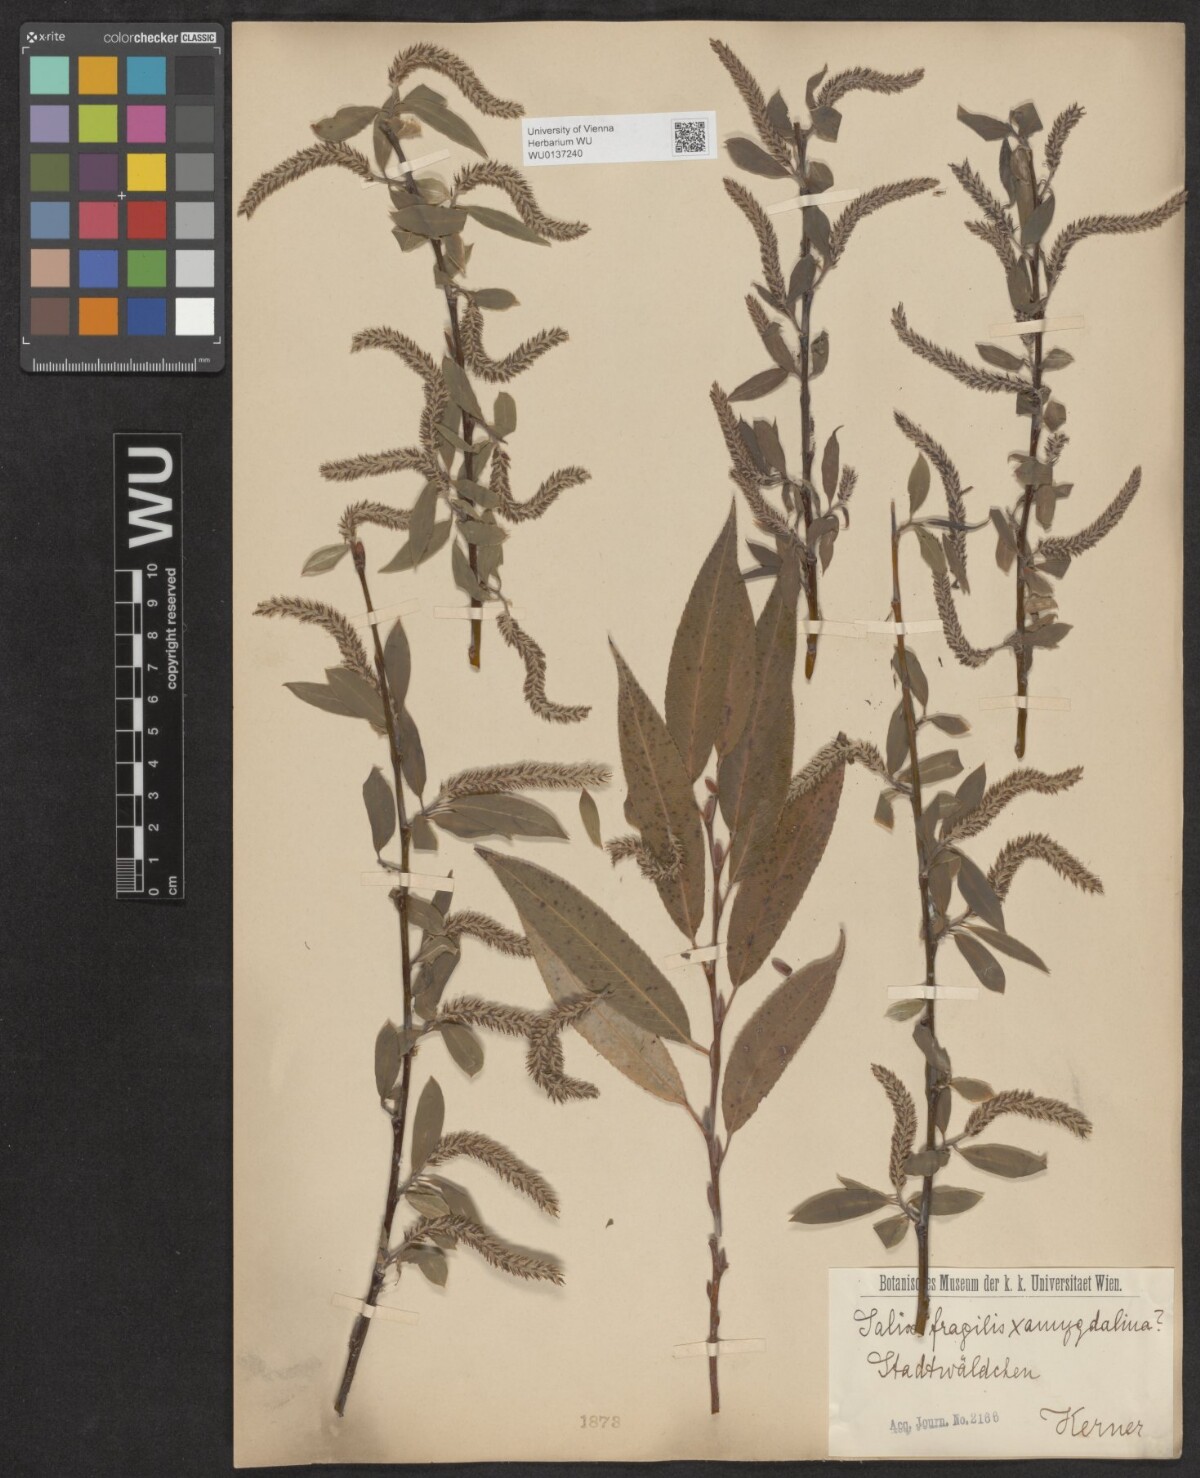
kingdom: Plantae
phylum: Tracheophyta
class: Magnoliopsida
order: Malpighiales
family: Salicaceae
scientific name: Salicaceae
